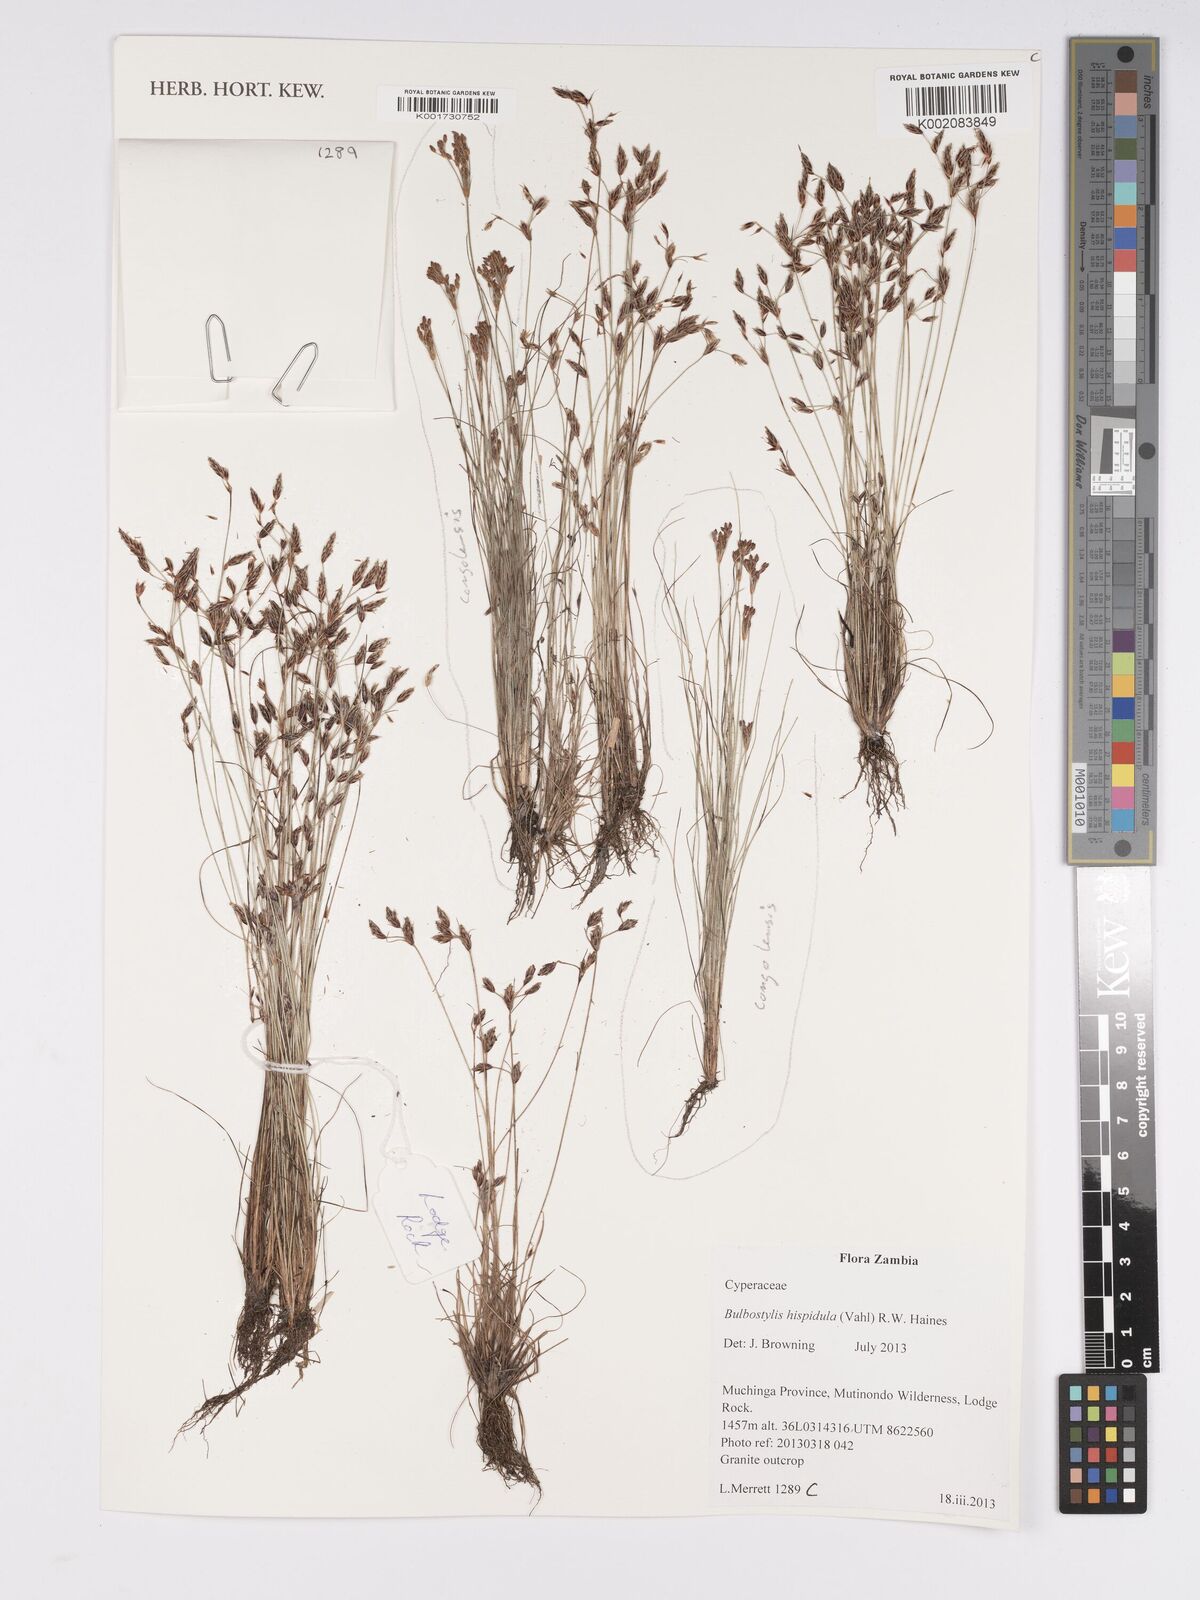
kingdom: Plantae
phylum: Tracheophyta
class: Liliopsida
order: Poales
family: Cyperaceae
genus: Bulbostylis
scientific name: Bulbostylis hispidula
